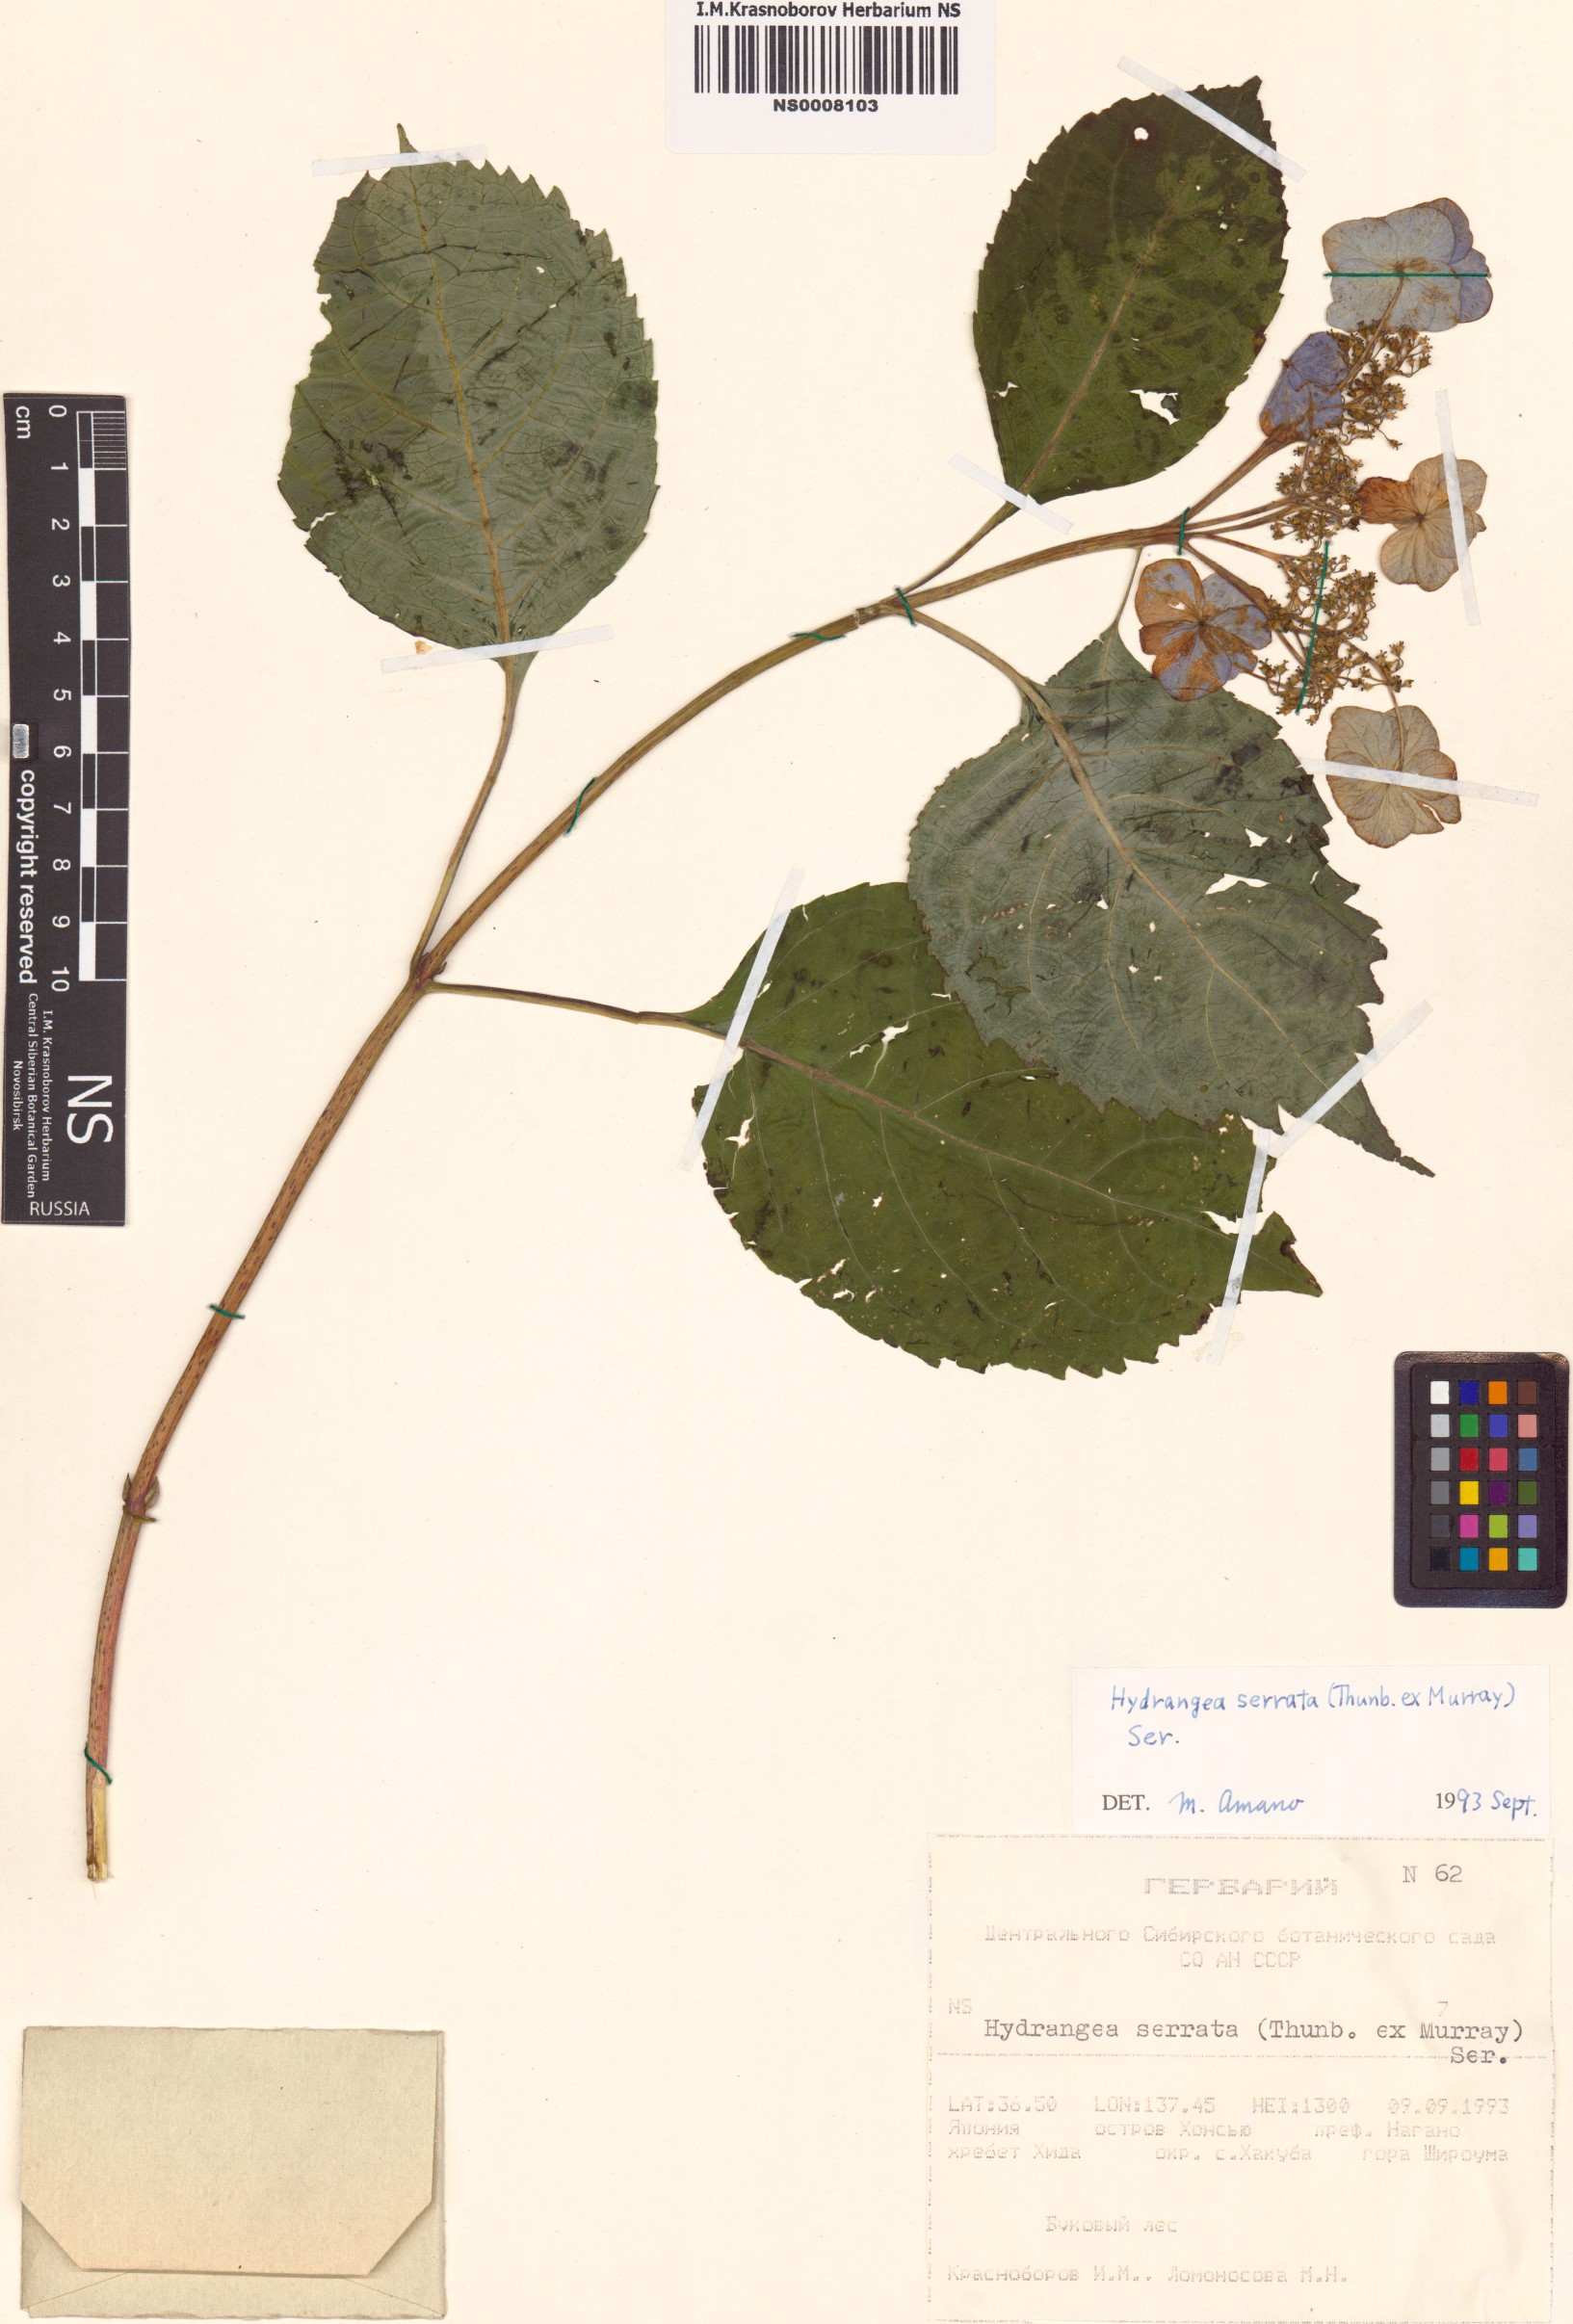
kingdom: Plantae
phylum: Tracheophyta
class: Magnoliopsida
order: Cornales
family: Hydrangeaceae
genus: Hydrangea
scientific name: Hydrangea serrata
